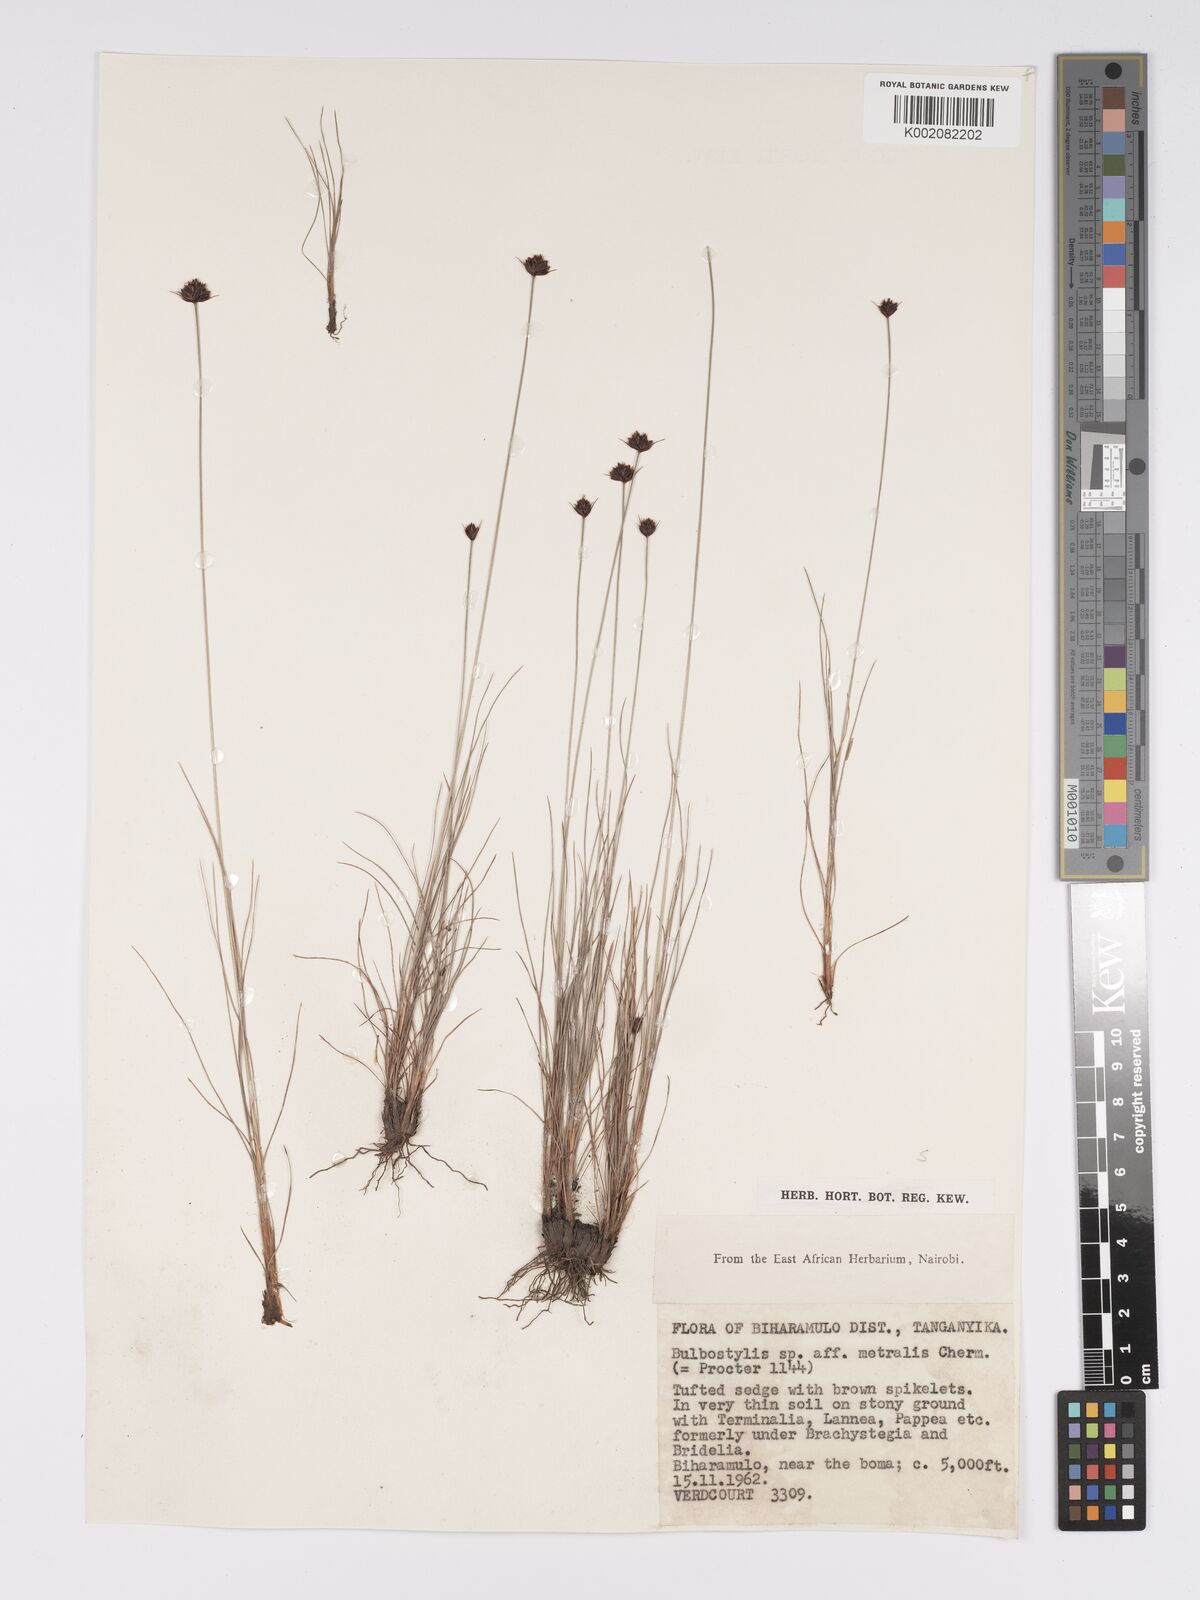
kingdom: Plantae
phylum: Tracheophyta
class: Liliopsida
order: Poales
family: Cyperaceae
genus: Bulbostylis
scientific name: Bulbostylis filamentosa
